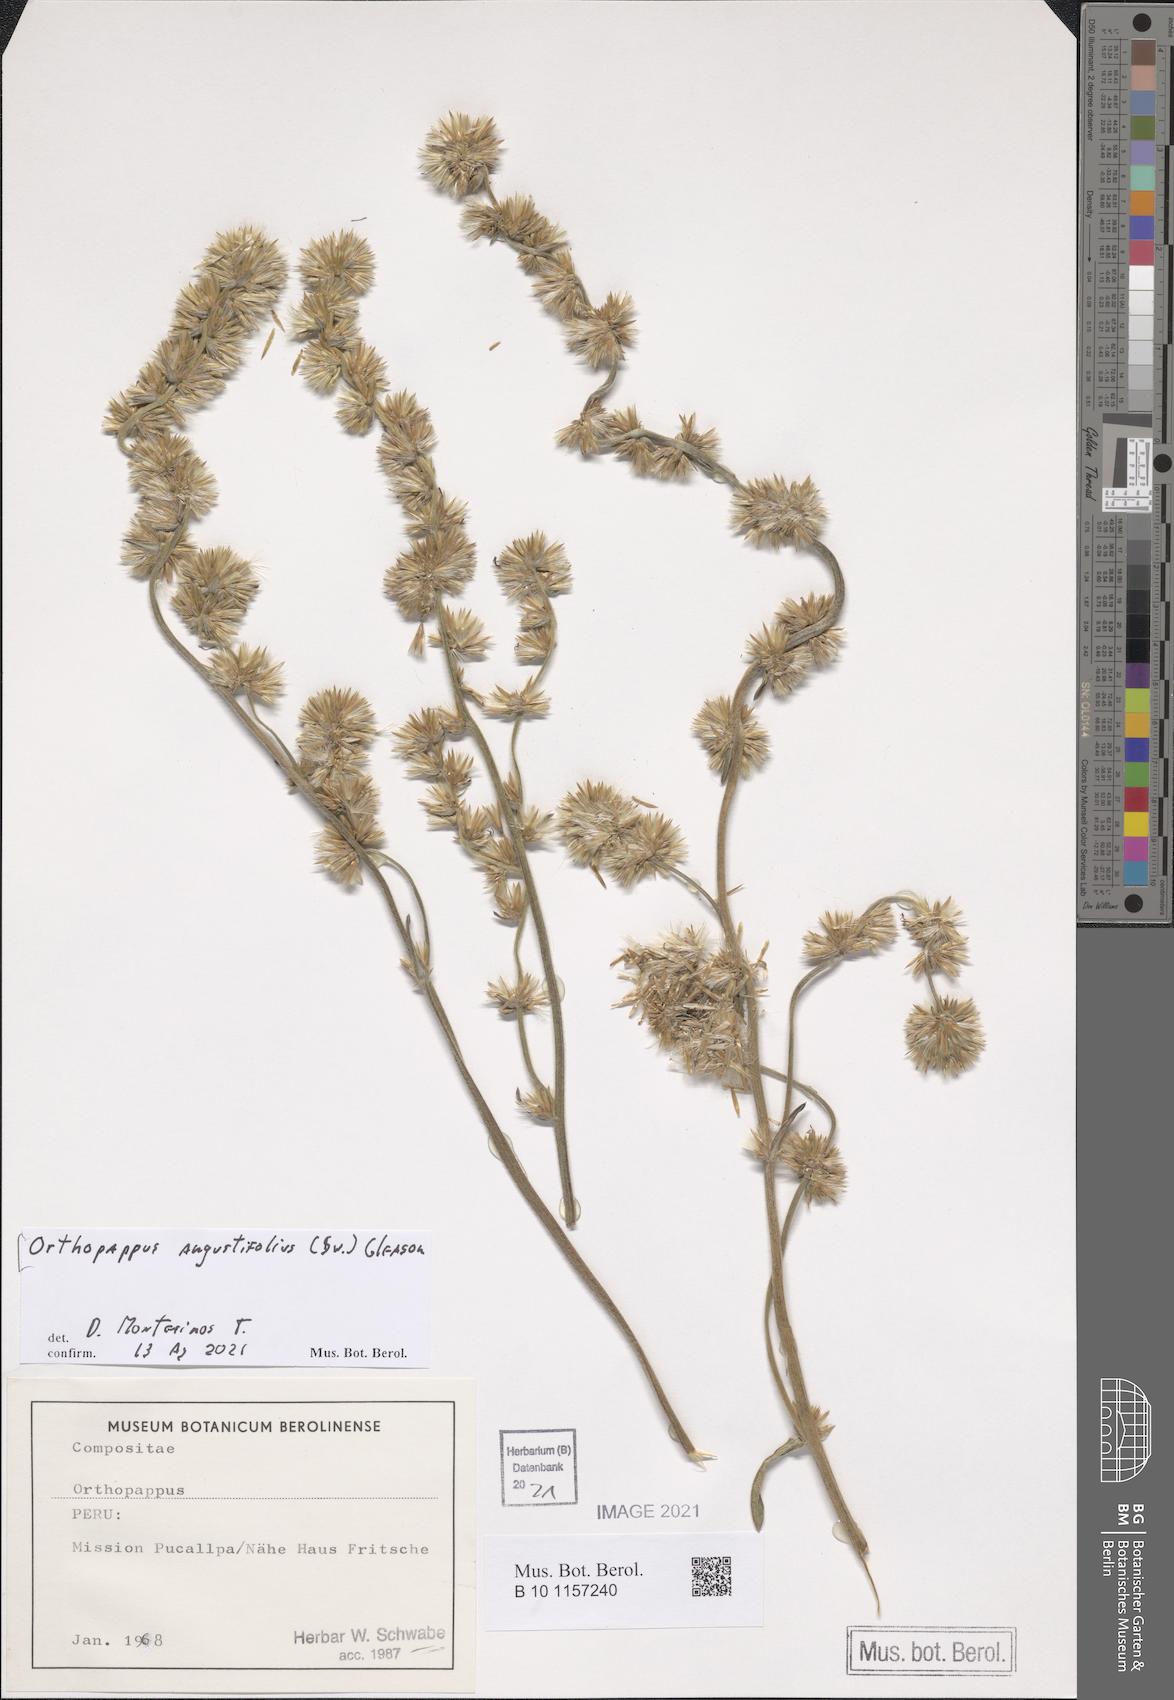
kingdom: Plantae
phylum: Tracheophyta
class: Magnoliopsida
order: Asterales
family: Asteraceae
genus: Orthopappus
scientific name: Orthopappus angustifolius
